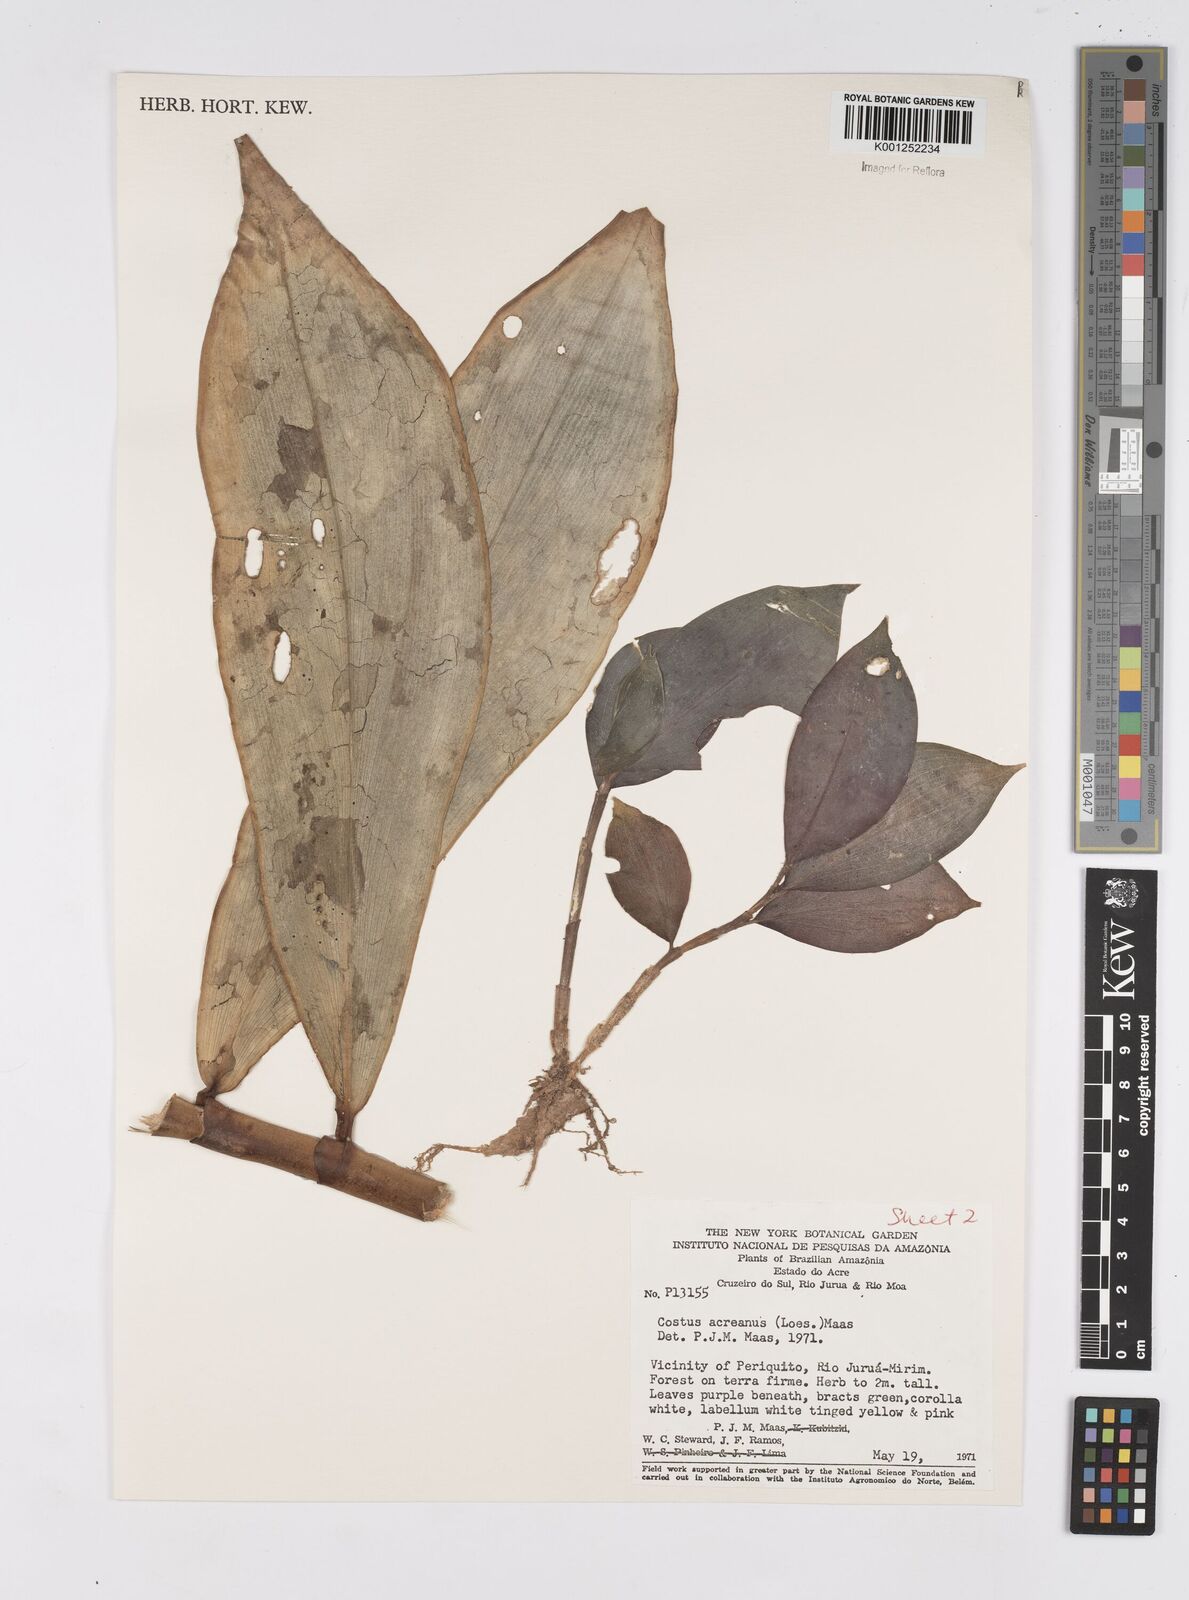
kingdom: Plantae
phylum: Tracheophyta
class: Liliopsida
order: Zingiberales
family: Costaceae
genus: Costus
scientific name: Costus acreanus
